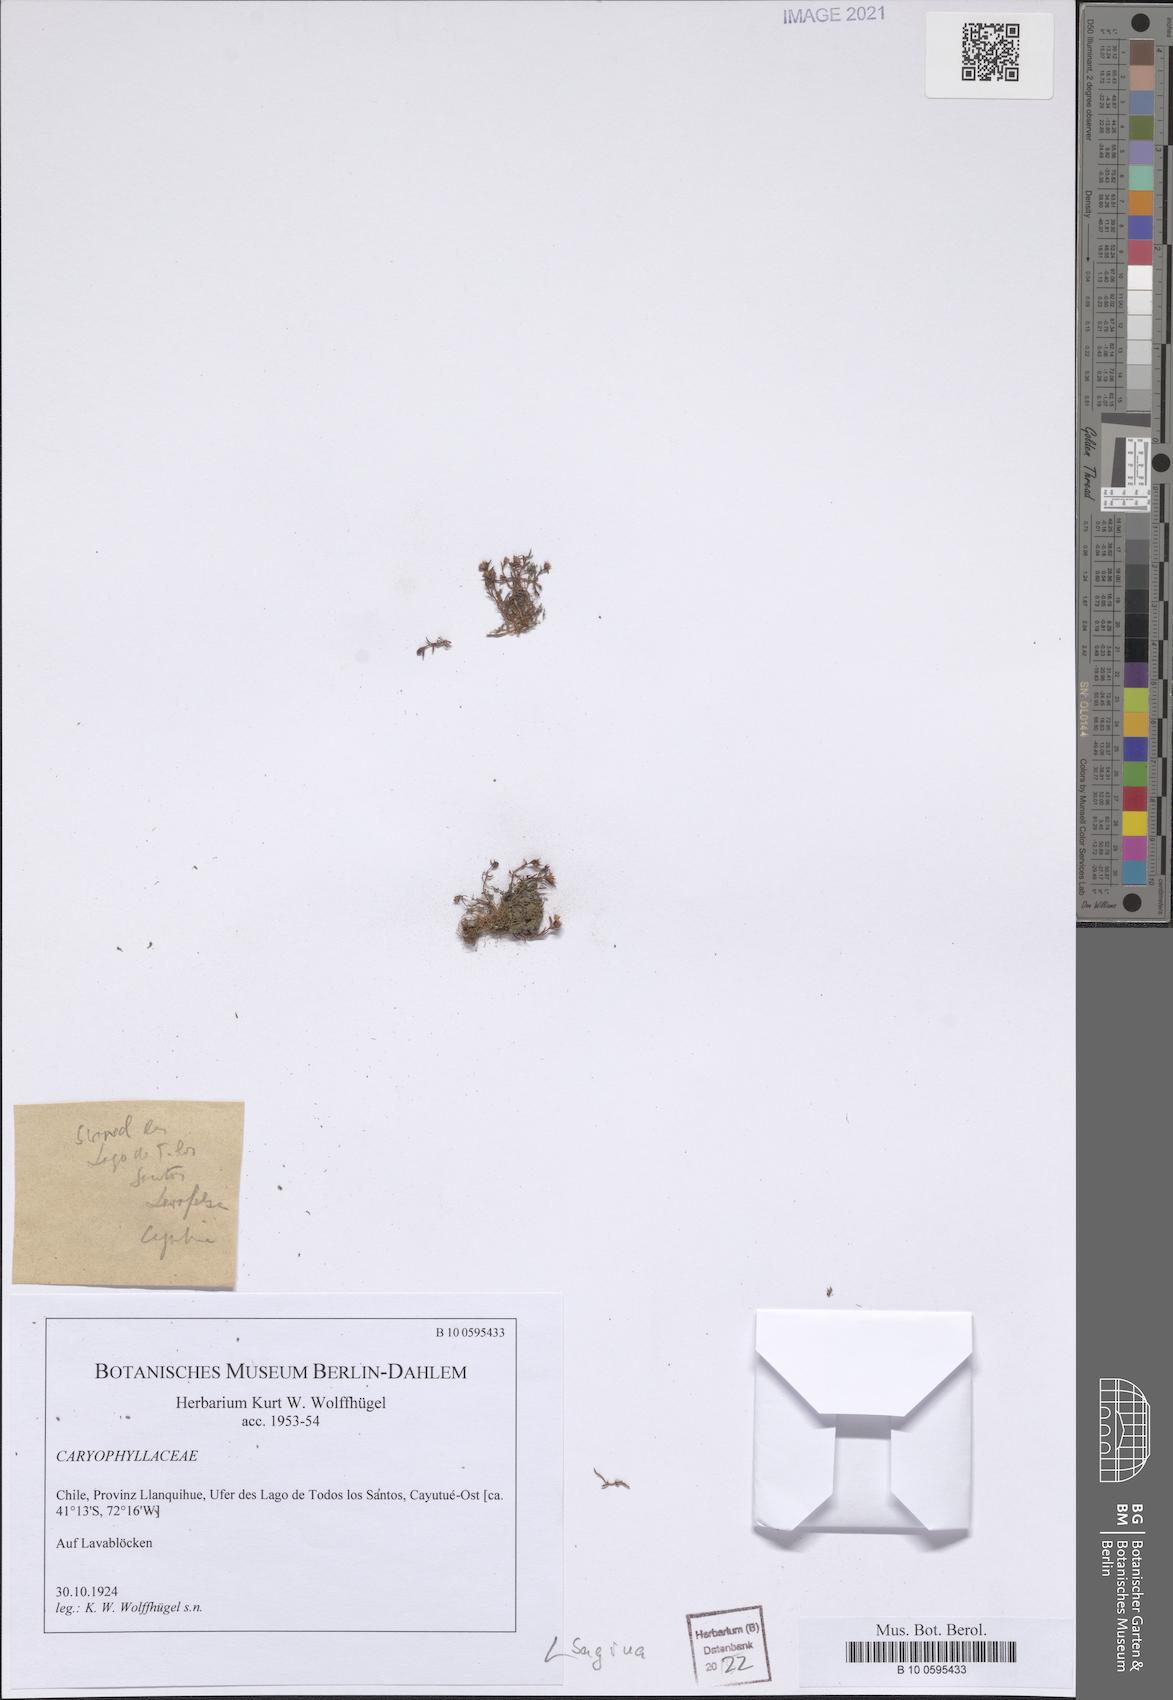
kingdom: Plantae
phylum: Tracheophyta
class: Magnoliopsida
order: Caryophyllales
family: Caryophyllaceae
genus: Sagina
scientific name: Sagina
